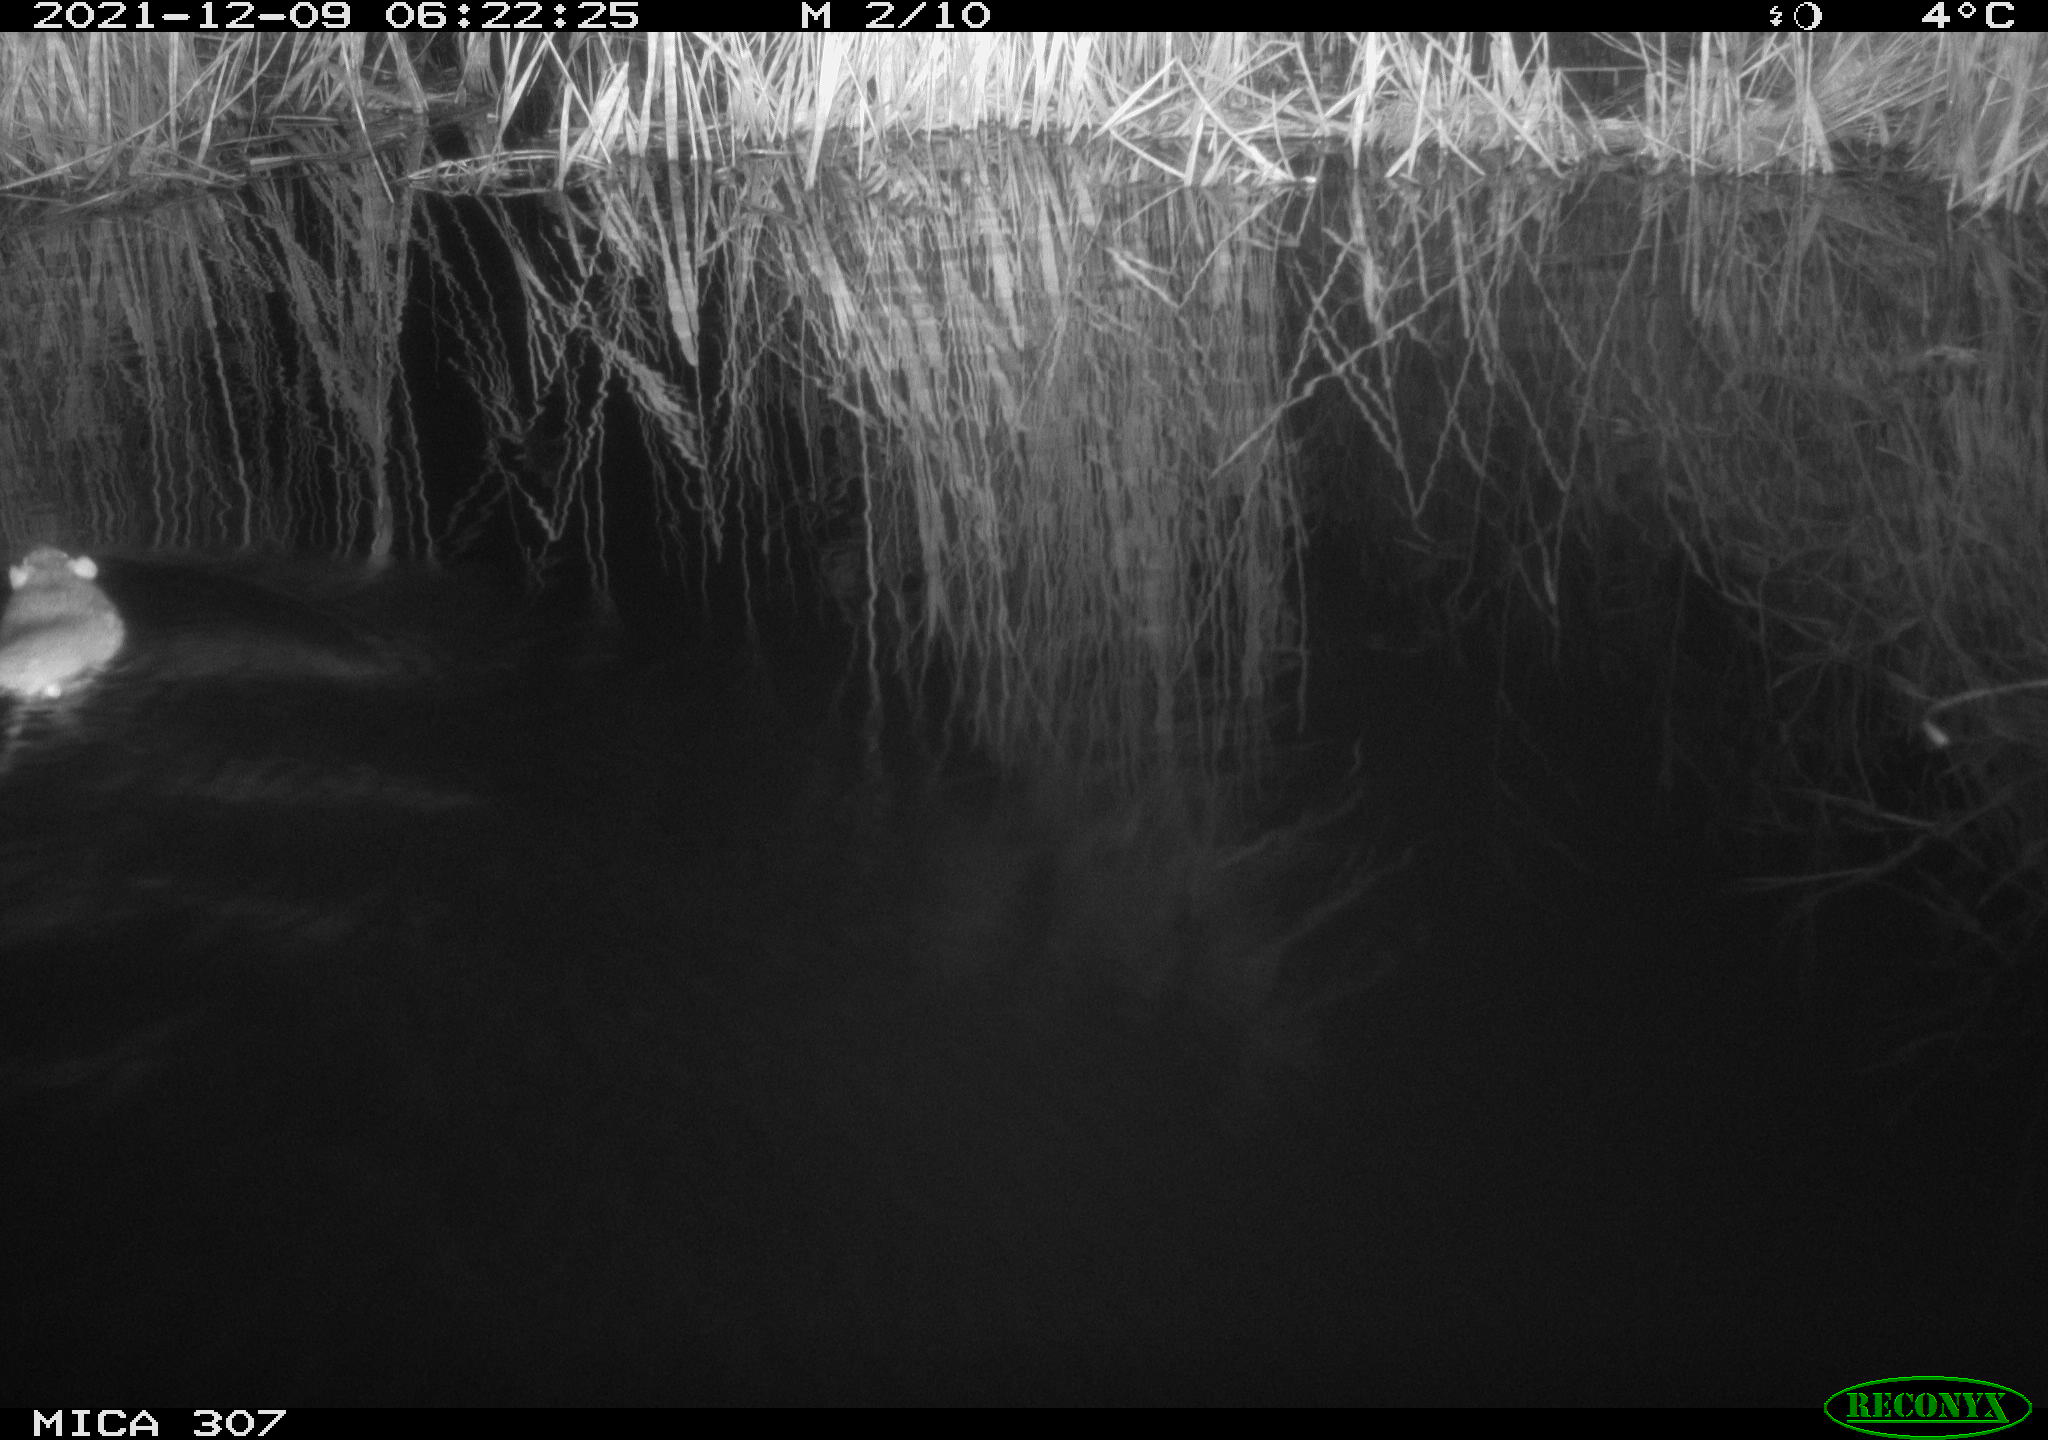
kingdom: Animalia
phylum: Chordata
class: Mammalia
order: Rodentia
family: Cricetidae
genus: Ondatra
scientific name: Ondatra zibethicus
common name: Muskrat
